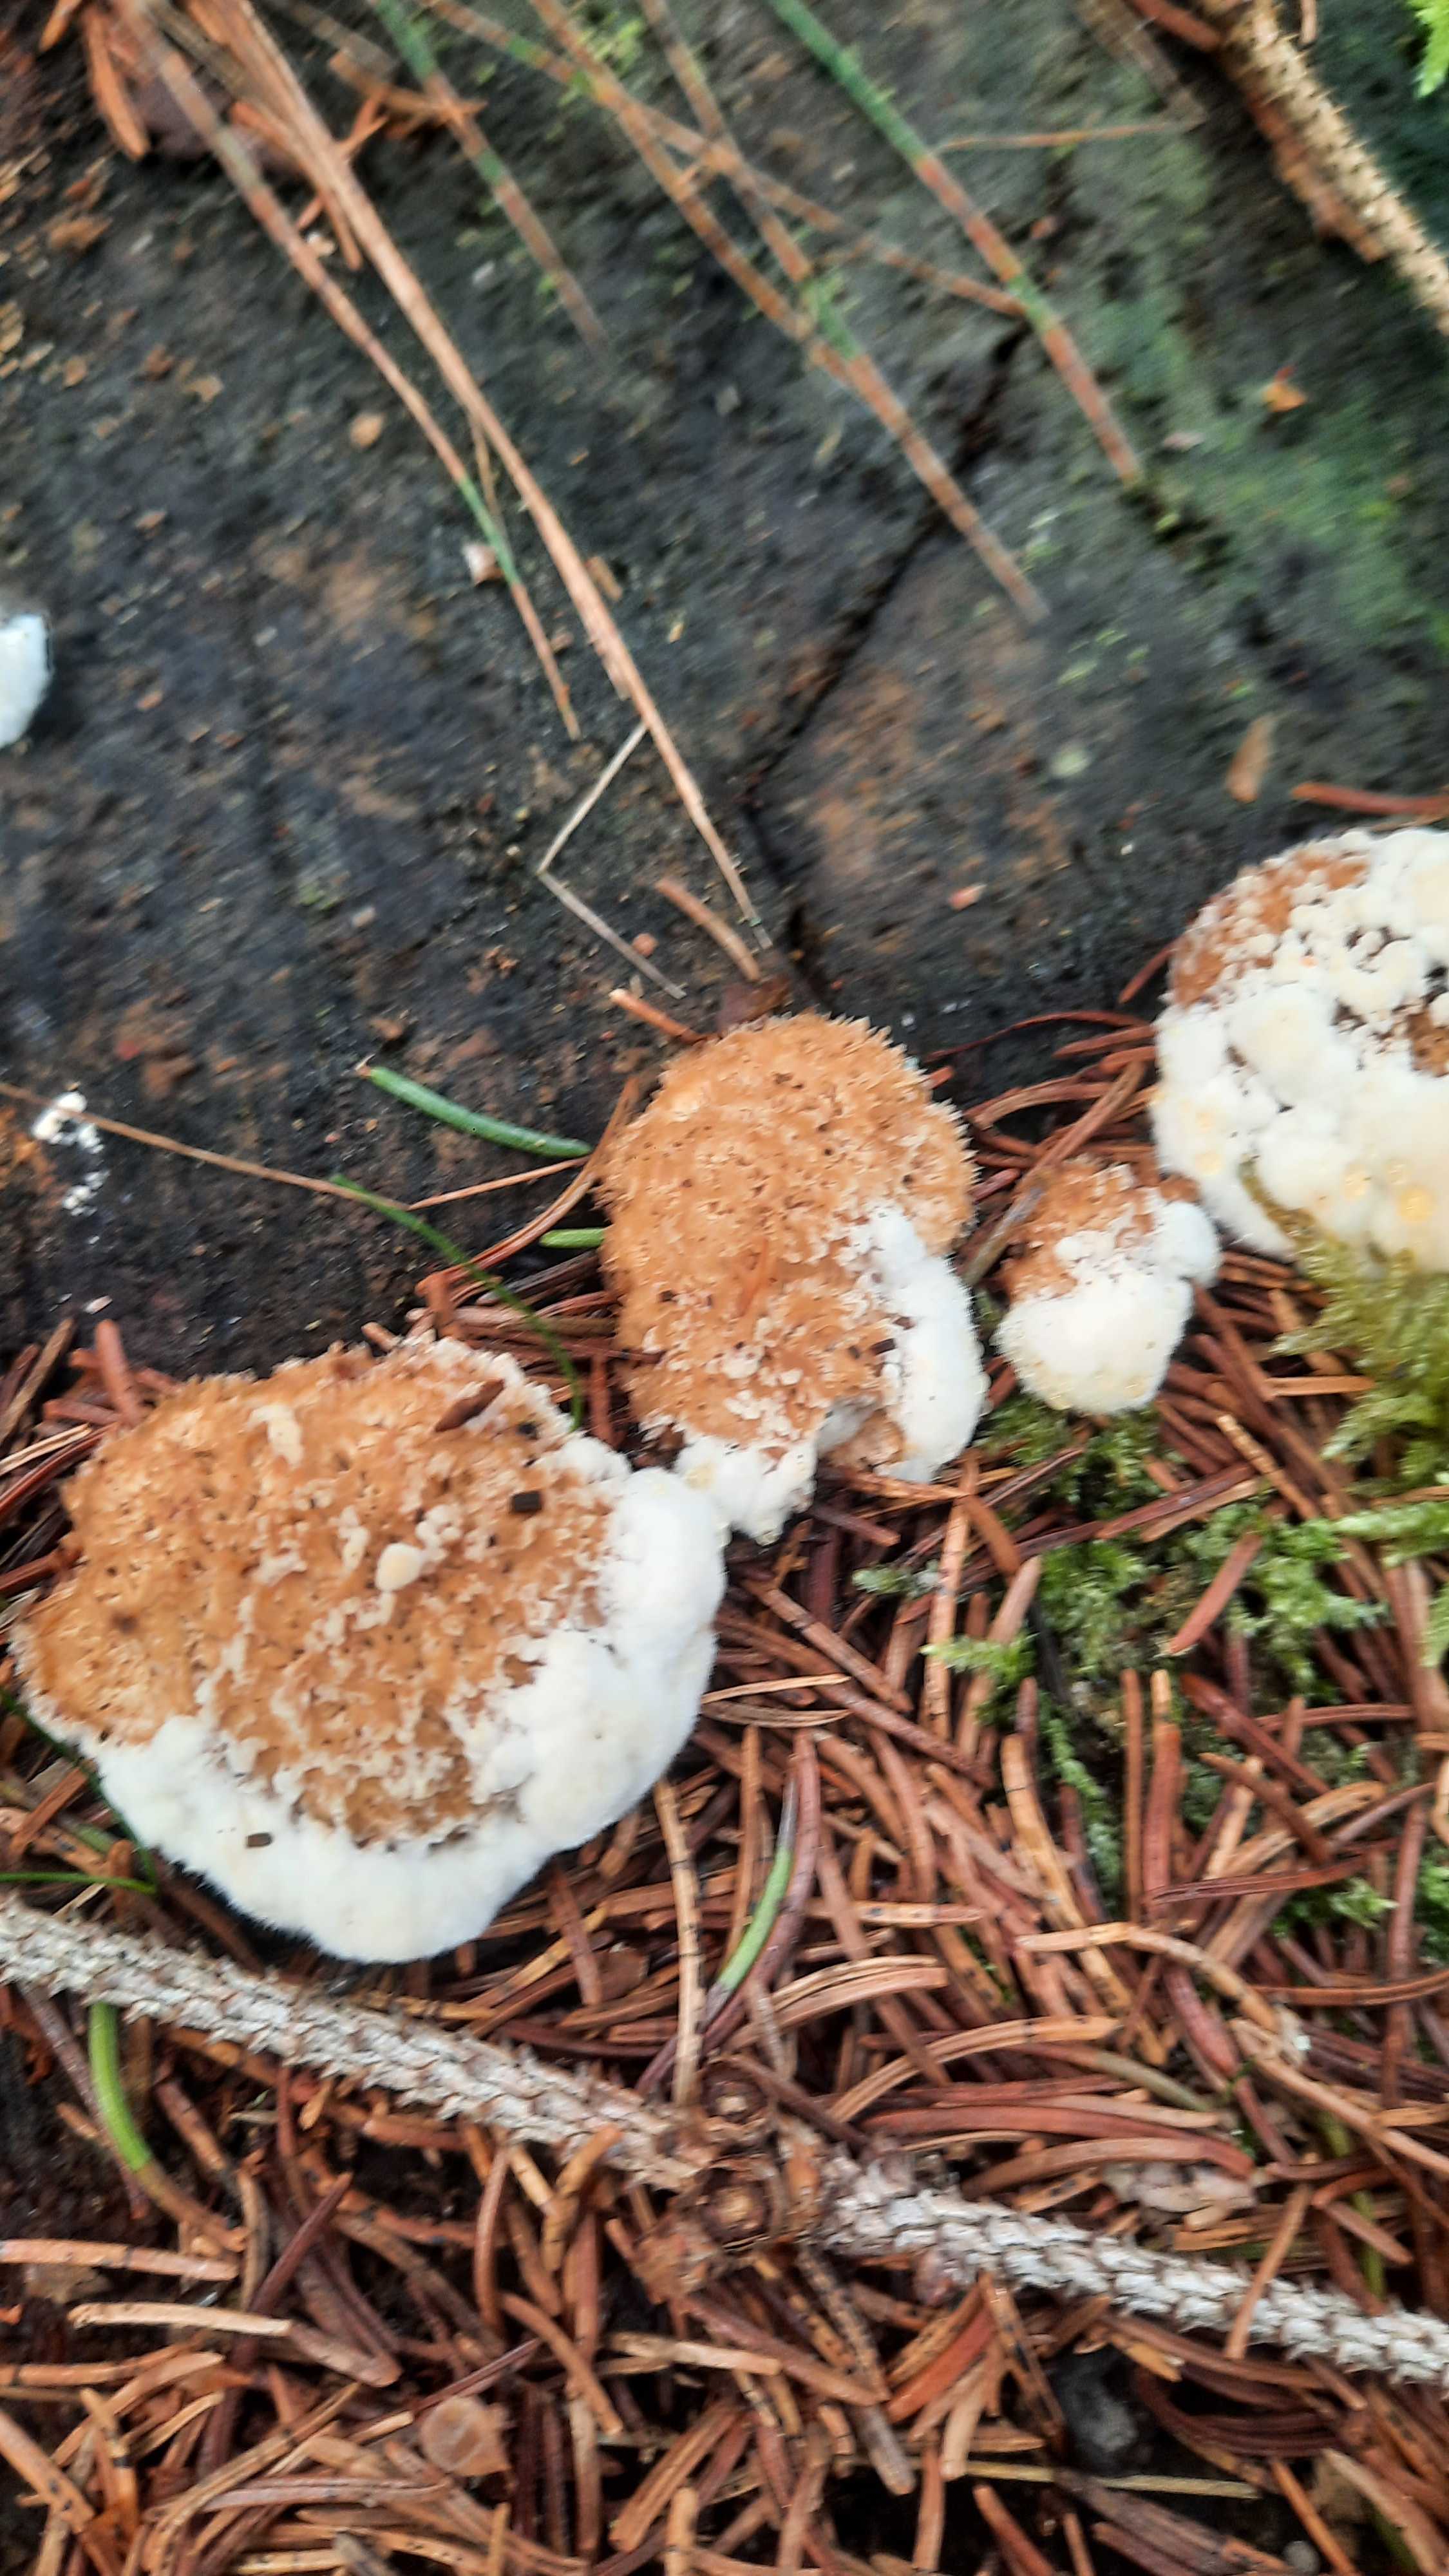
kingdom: Fungi
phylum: Basidiomycota
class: Agaricomycetes
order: Polyporales
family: Dacryobolaceae
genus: Postia
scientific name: Postia ptychogaster
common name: støvende kødporesvamp
